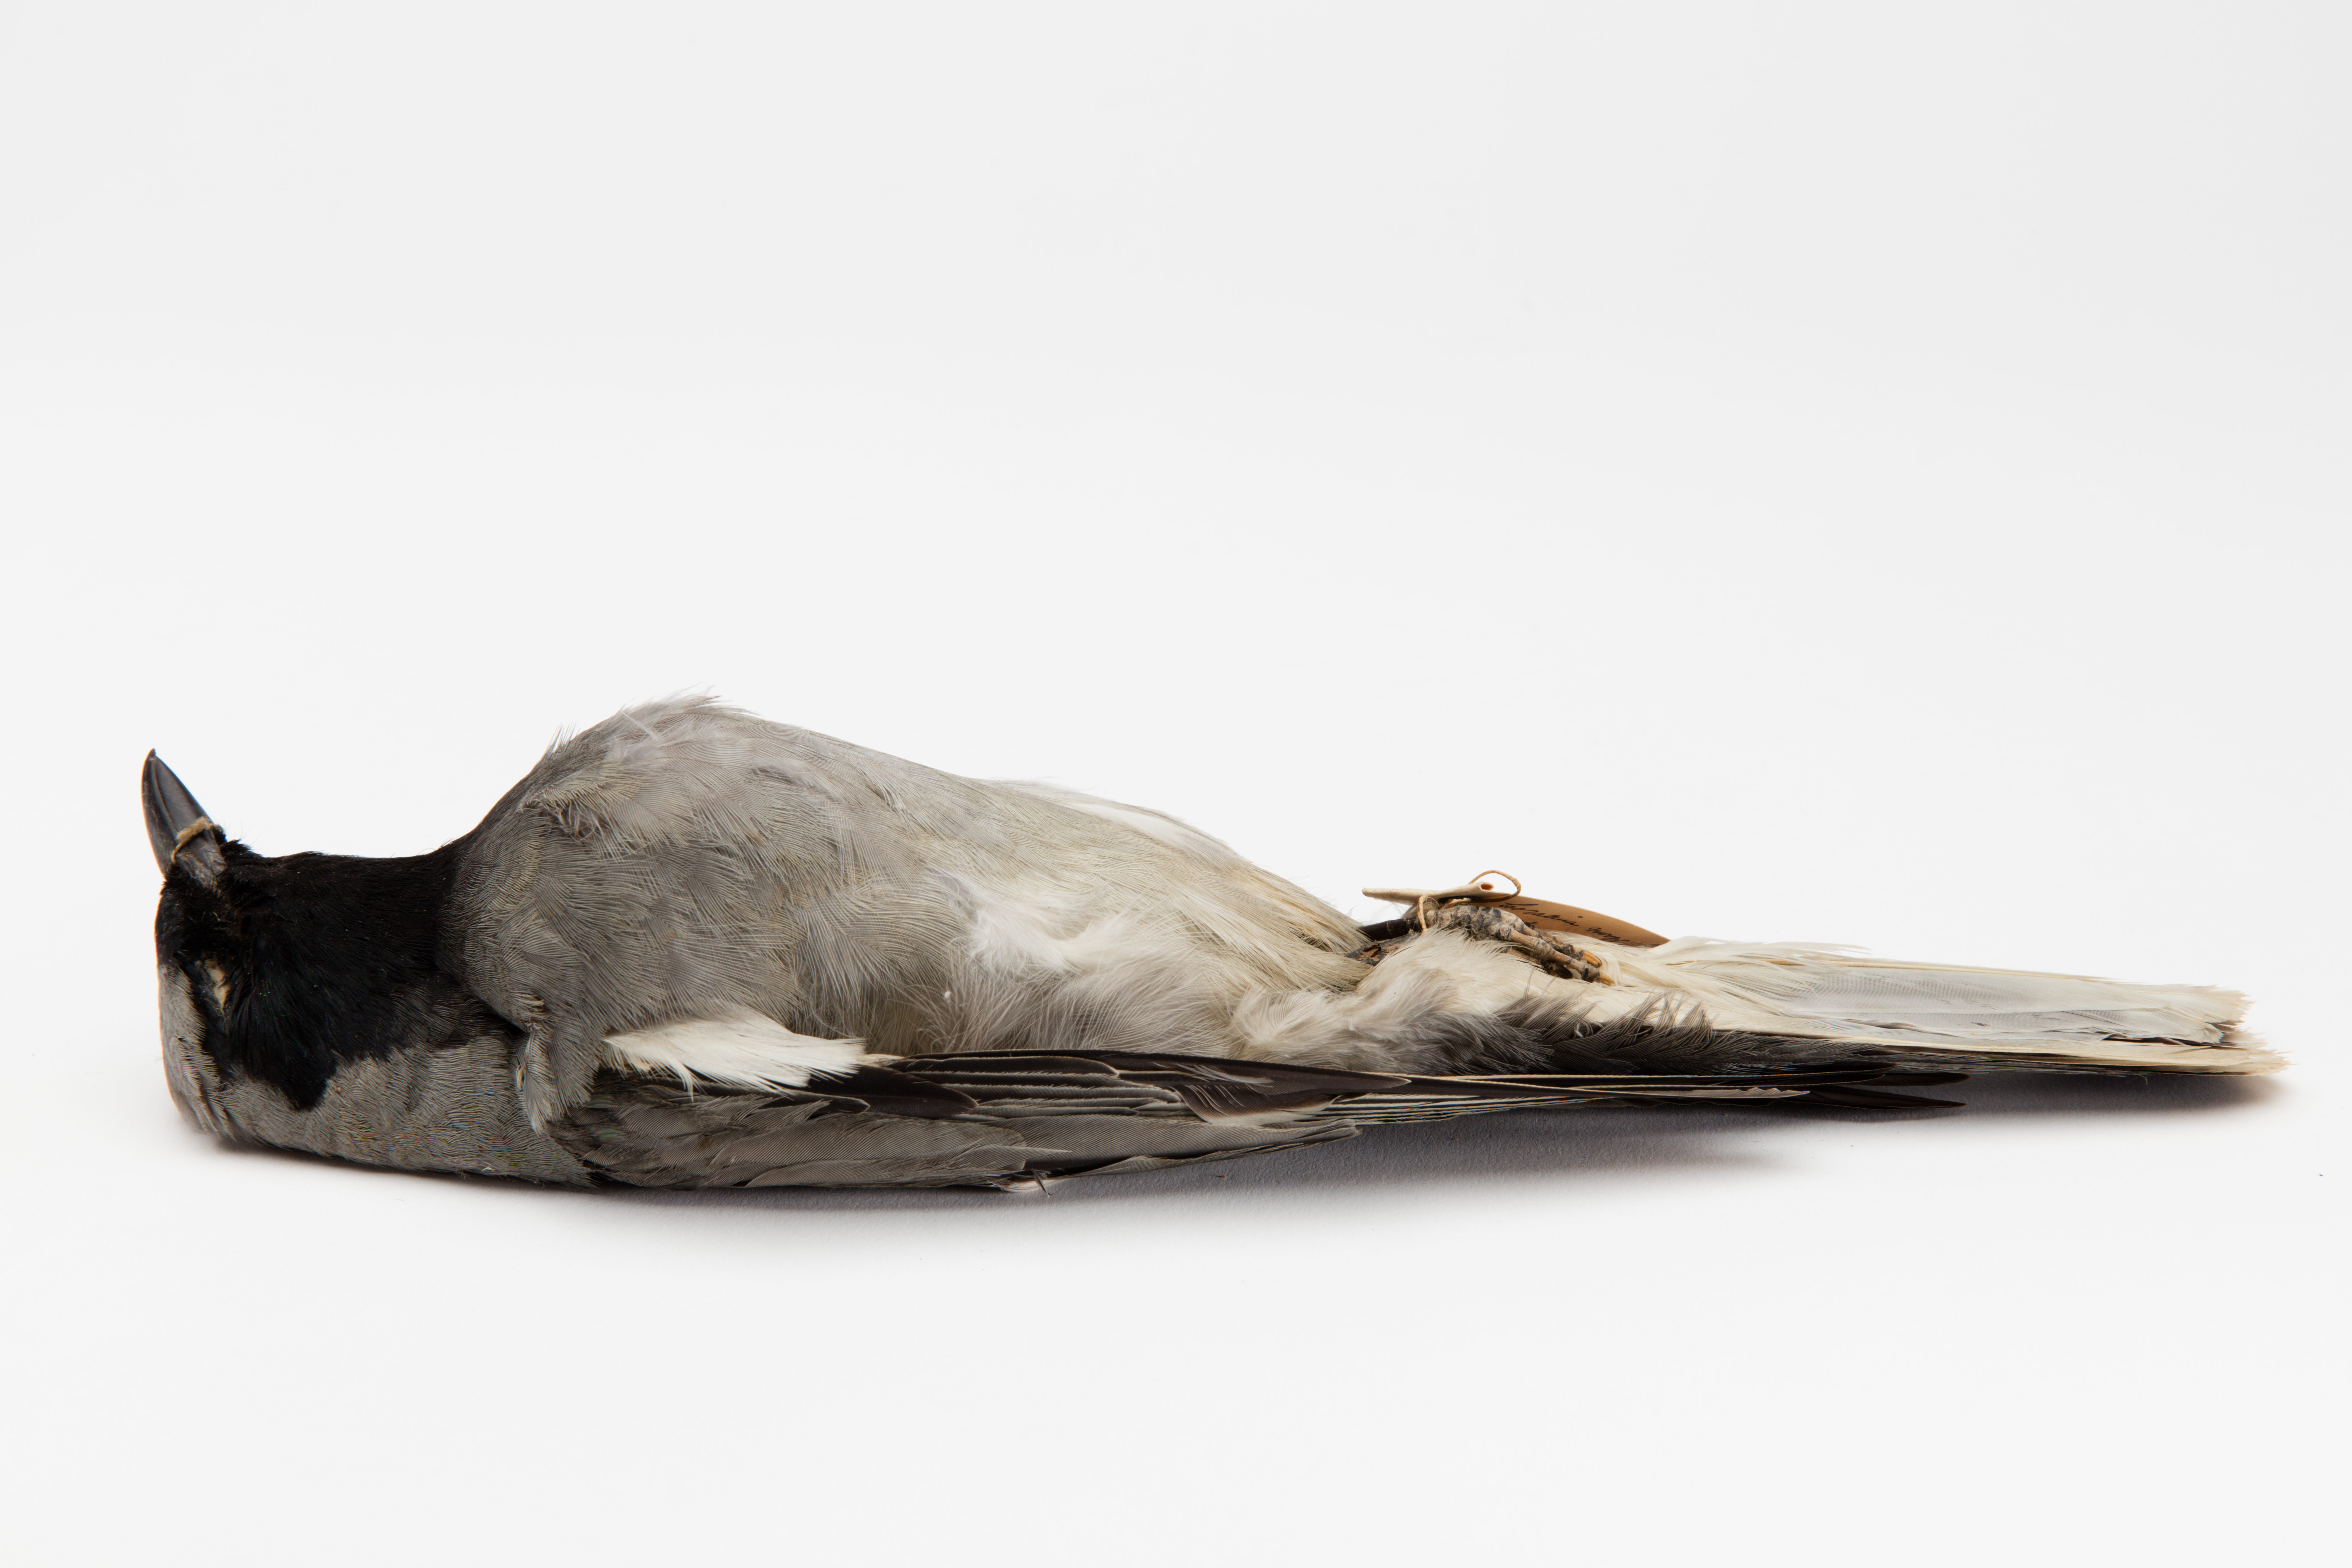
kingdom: Animalia
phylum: Chordata
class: Aves
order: Passeriformes
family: Campephagidae
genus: Coracina
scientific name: Coracina novaehollandiae
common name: Black-faced cuckooshrike
